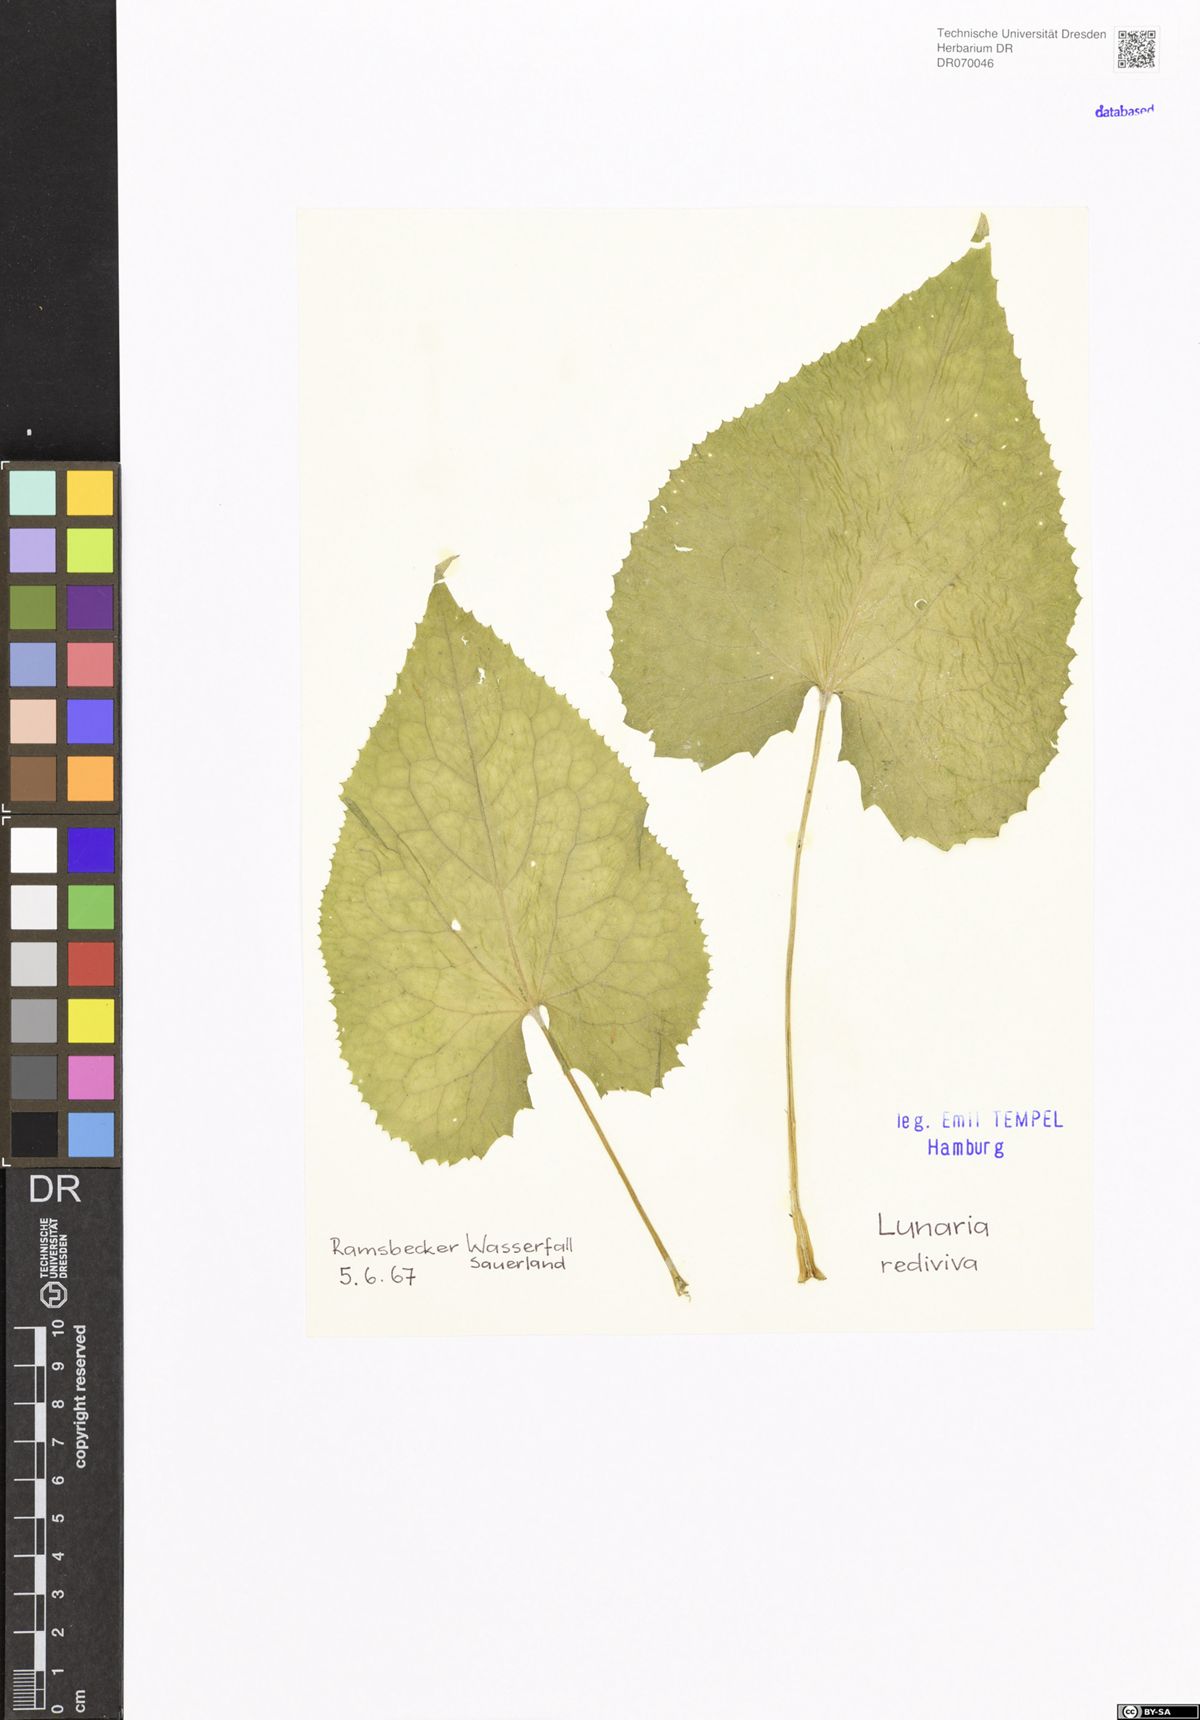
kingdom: Plantae
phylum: Tracheophyta
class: Magnoliopsida
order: Brassicales
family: Brassicaceae
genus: Lunaria
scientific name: Lunaria rediviva
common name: Perennial honesty
